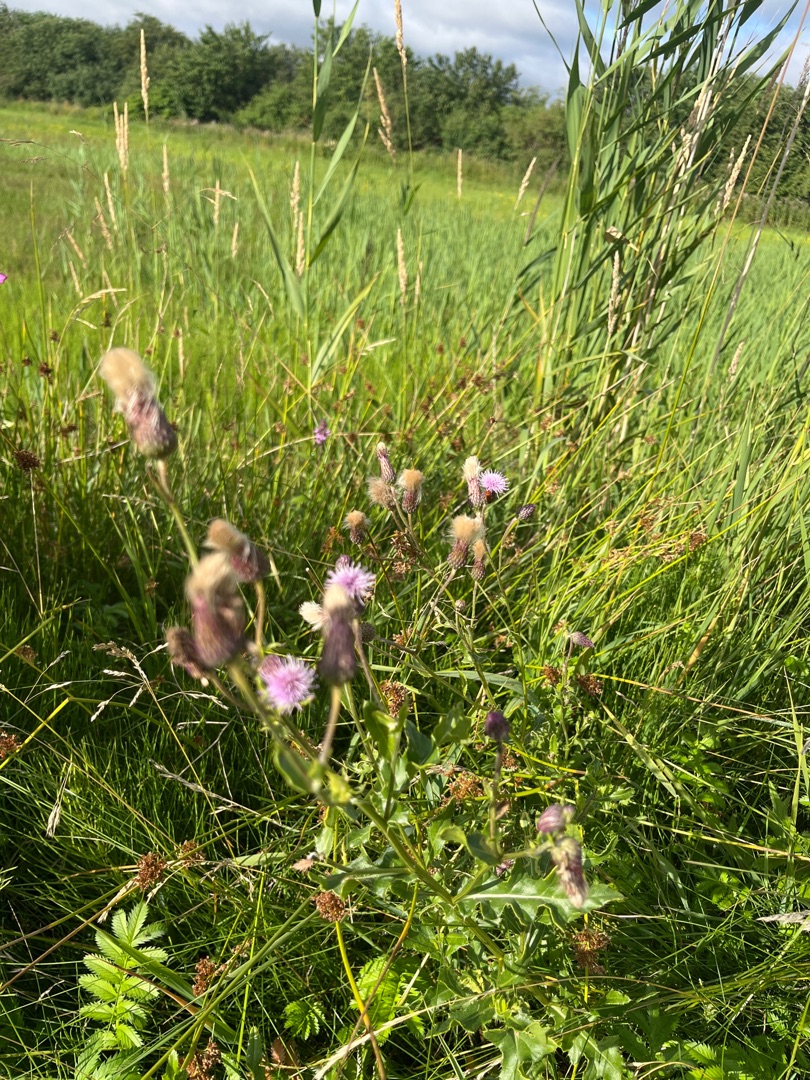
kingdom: Plantae
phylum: Tracheophyta
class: Magnoliopsida
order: Asterales
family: Asteraceae
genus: Cirsium
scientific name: Cirsium arvense
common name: Ager-tidsel
